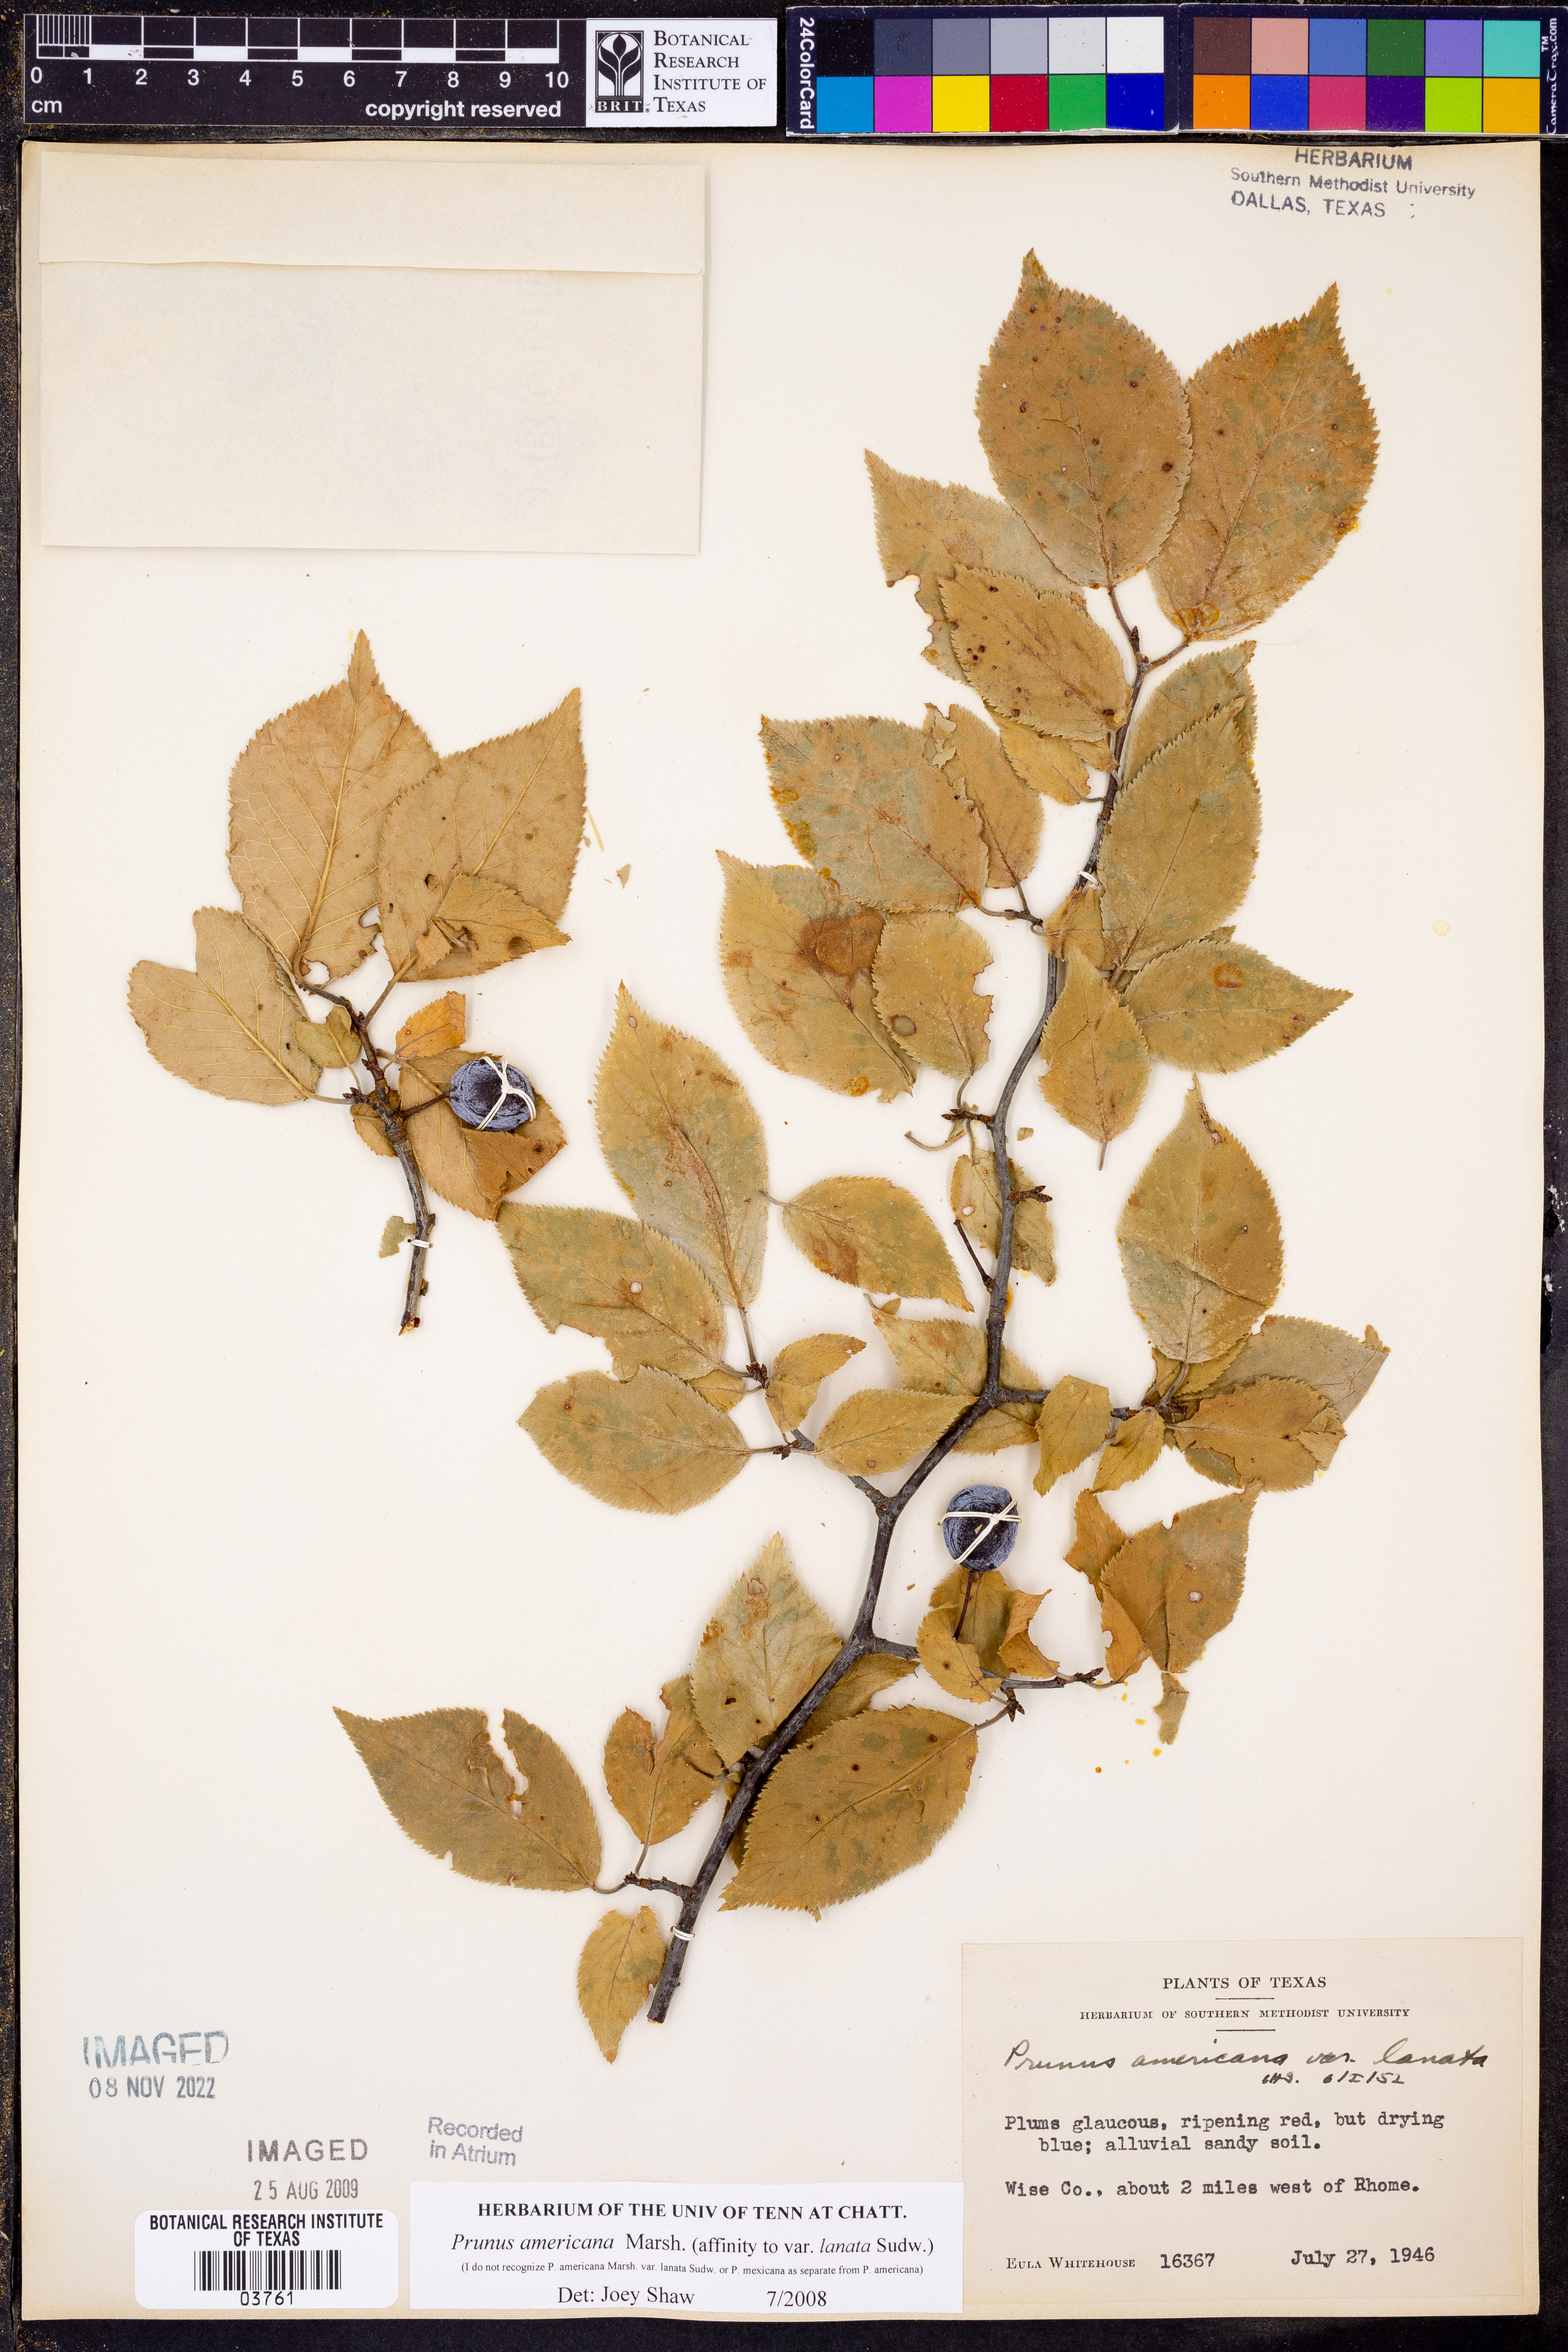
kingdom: Plantae
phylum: Tracheophyta
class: Magnoliopsida
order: Rosales
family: Rosaceae
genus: Prunus
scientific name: Prunus americana
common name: American plum
